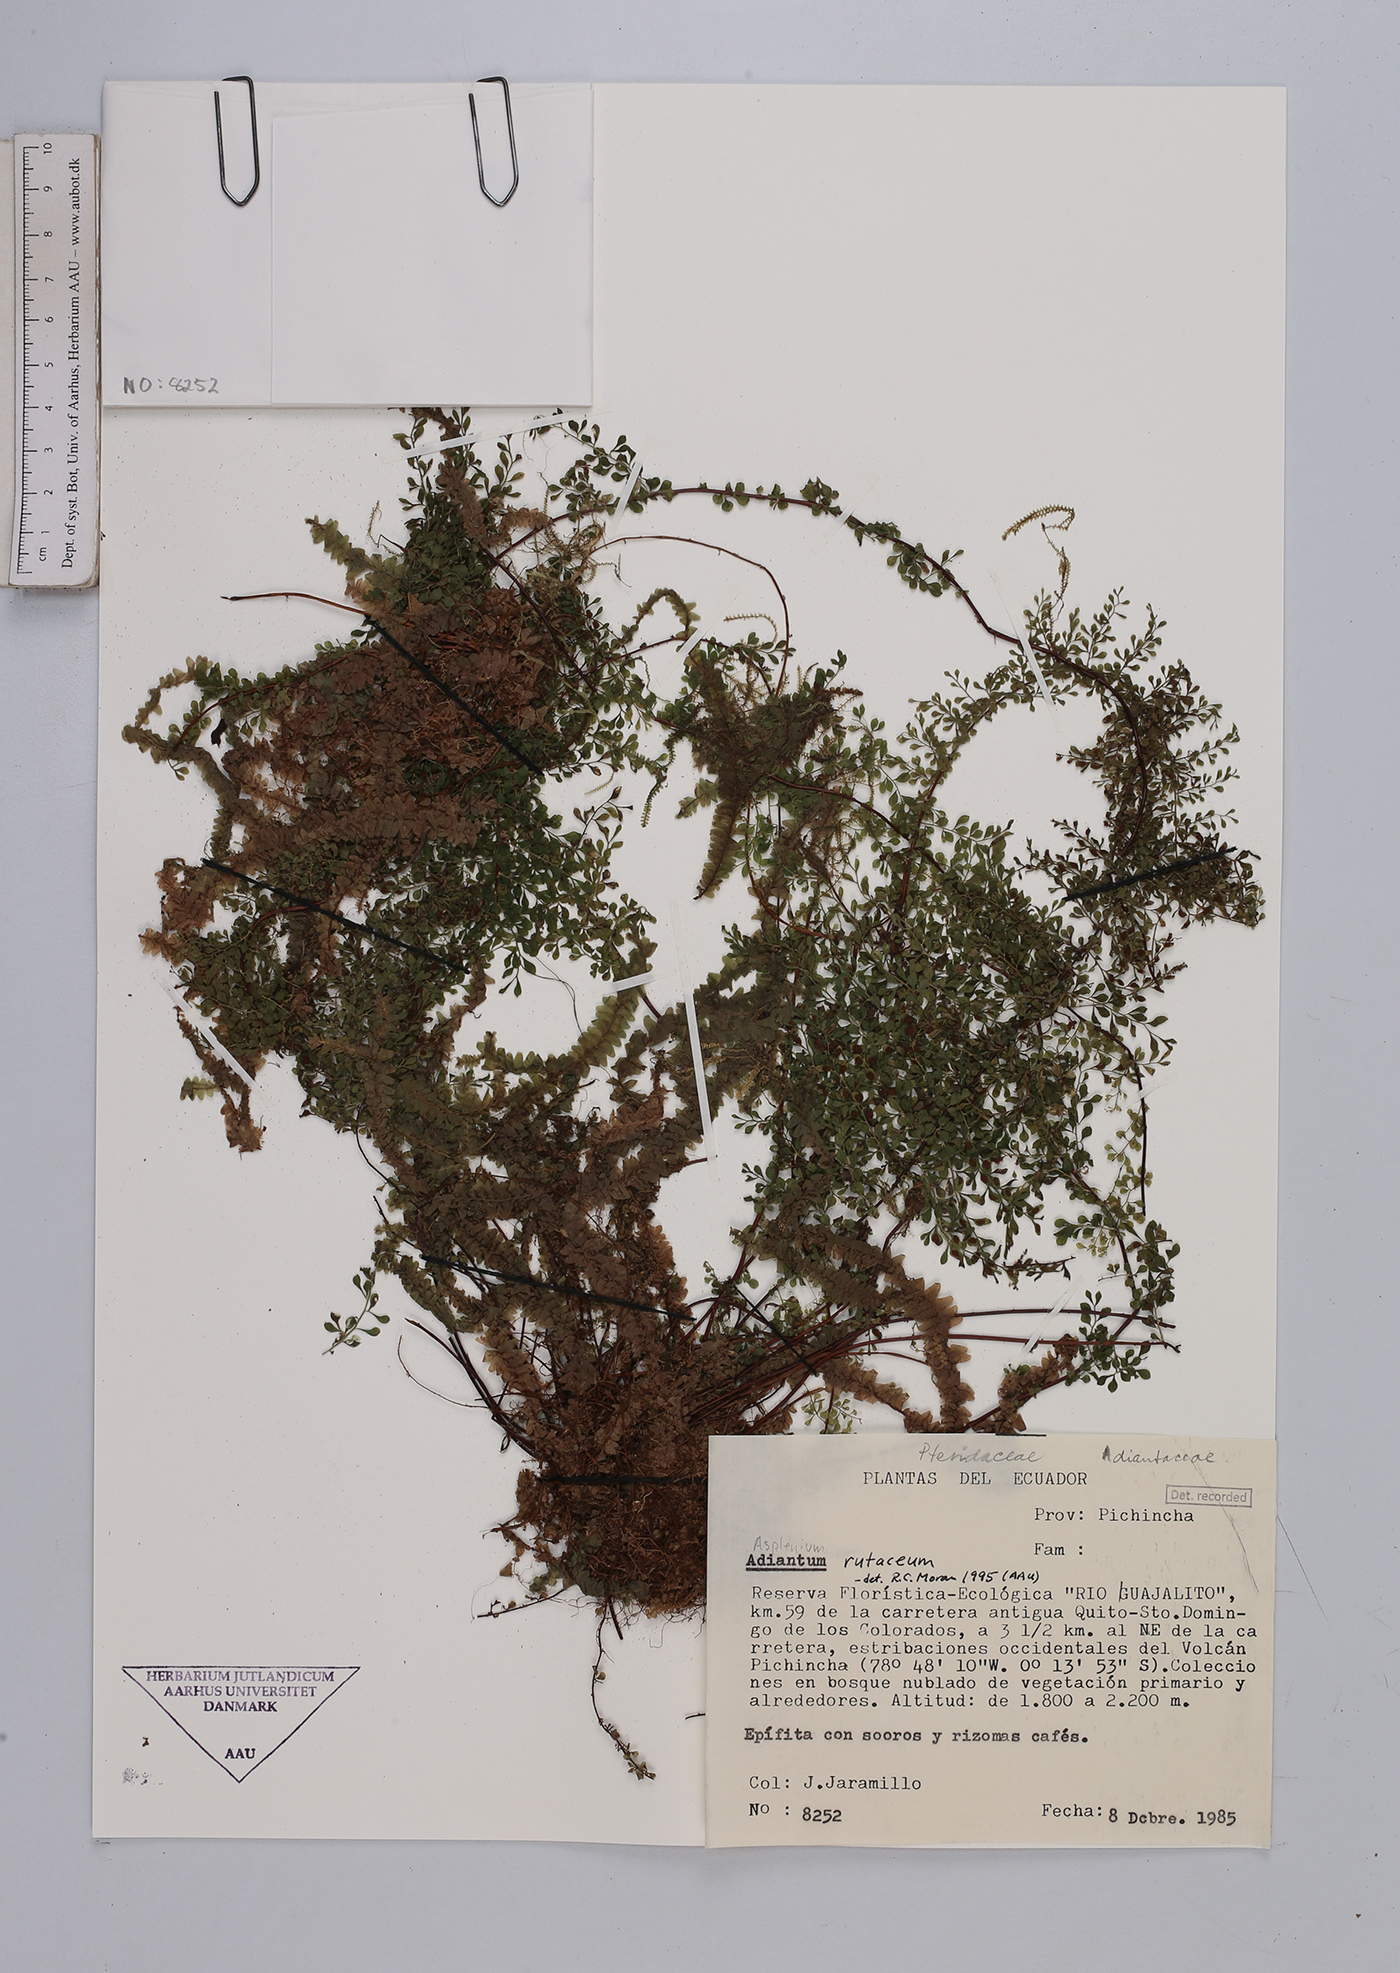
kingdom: Plantae
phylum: Tracheophyta
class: Polypodiopsida
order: Polypodiales
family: Aspleniaceae
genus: Asplenium
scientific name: Asplenium rutaceum
